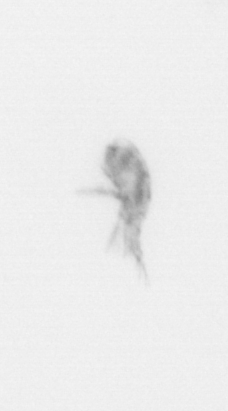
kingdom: Animalia
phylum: Arthropoda
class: Copepoda
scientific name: Copepoda
